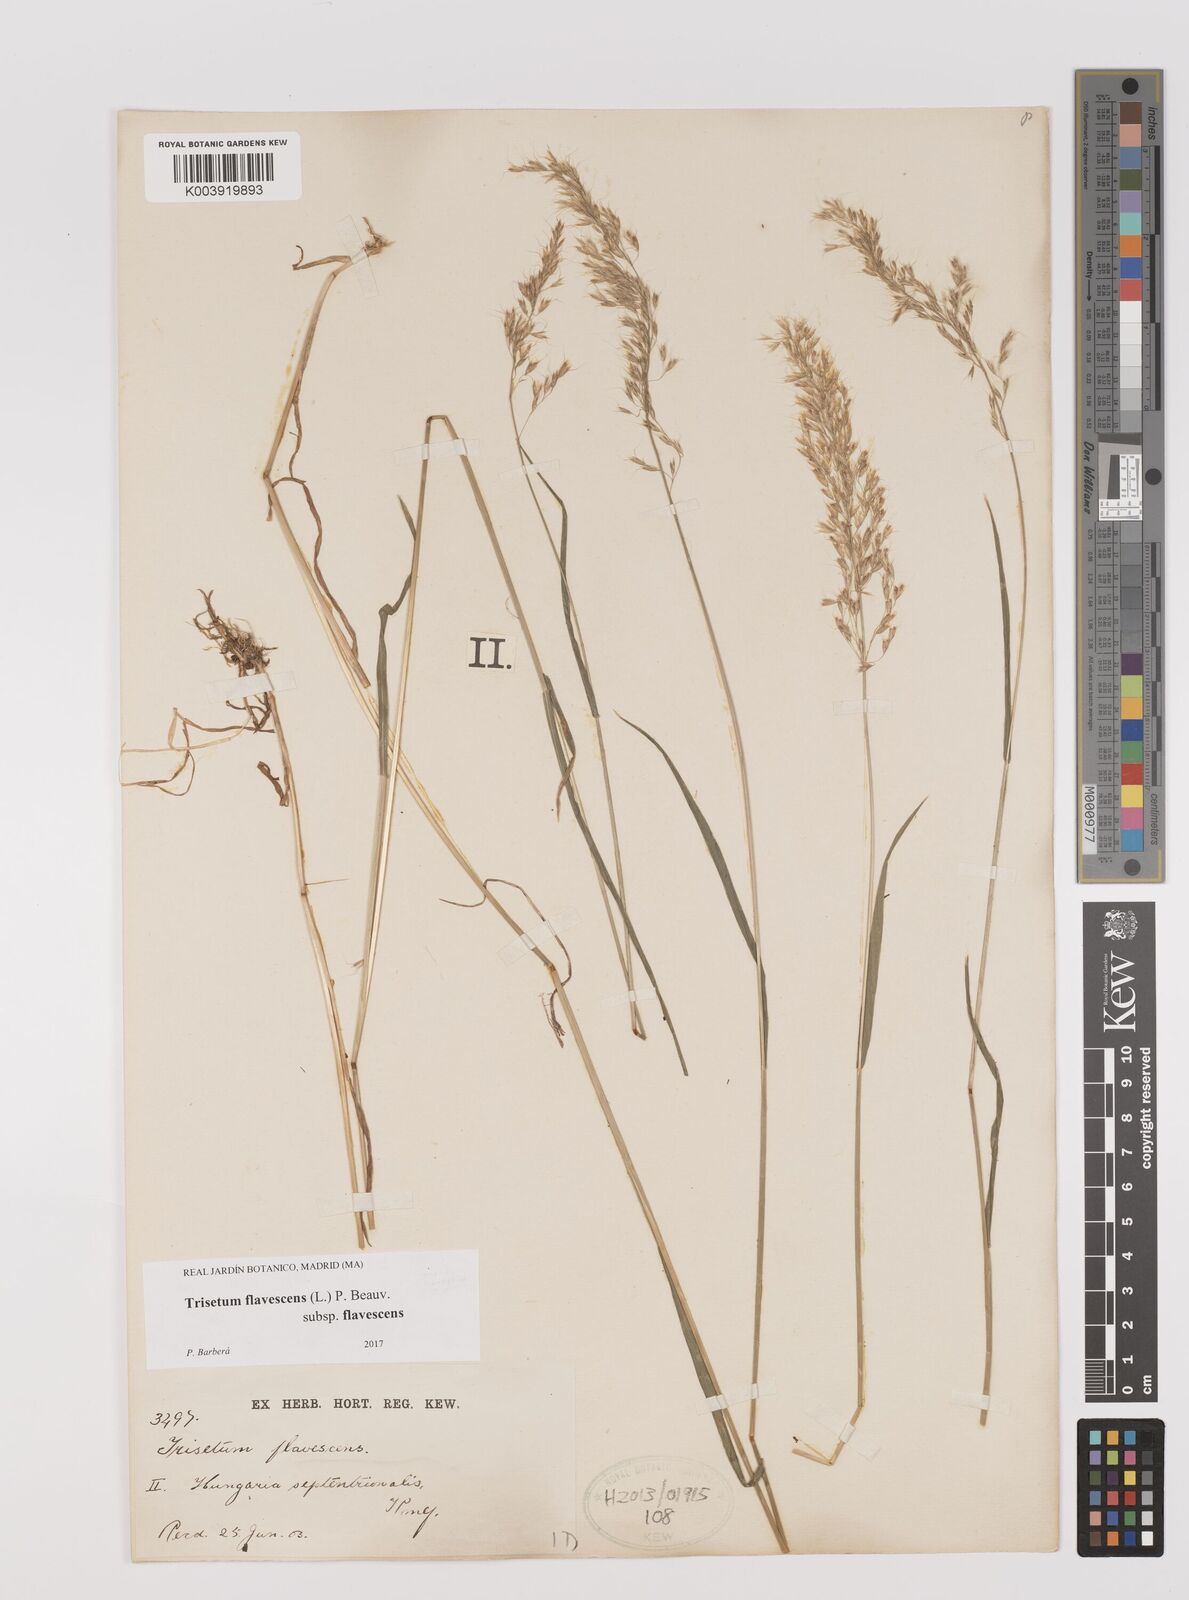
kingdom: Plantae
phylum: Tracheophyta
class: Liliopsida
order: Poales
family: Poaceae
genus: Trisetum
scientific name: Trisetum flavescens
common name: Yellow oat-grass
